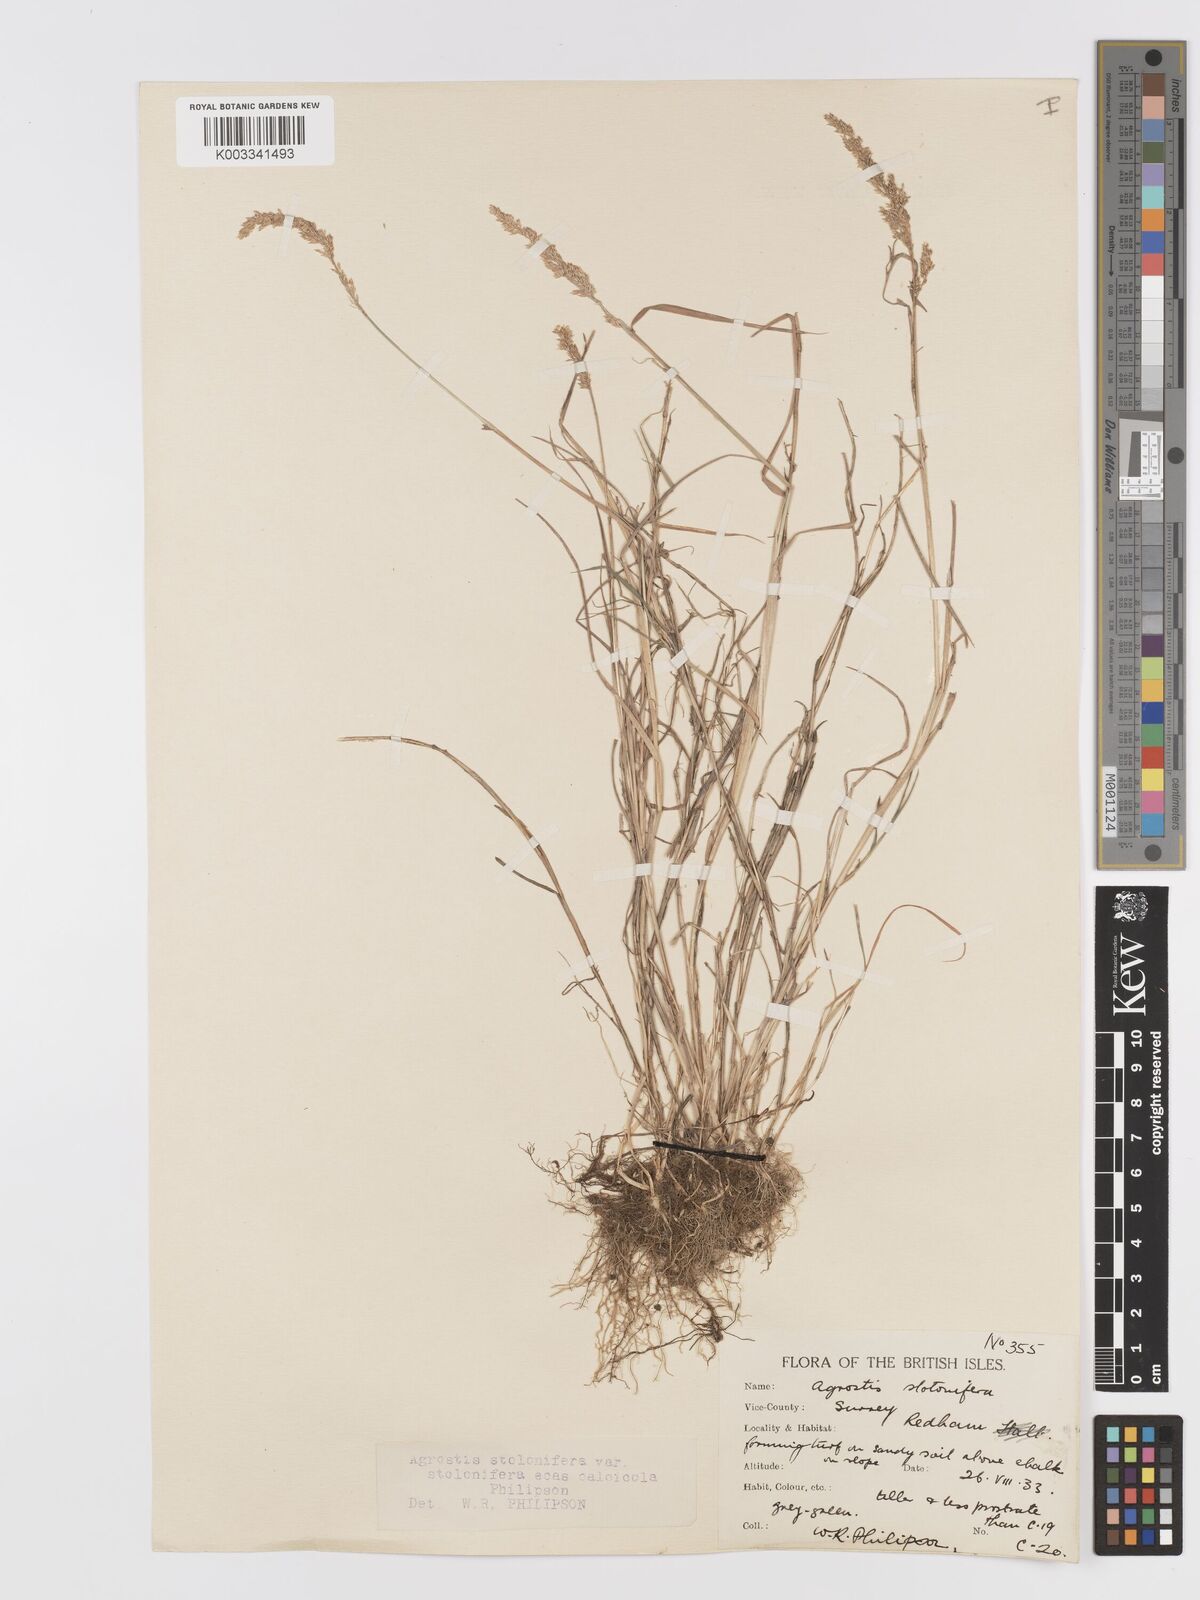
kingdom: Plantae
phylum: Tracheophyta
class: Liliopsida
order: Poales
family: Poaceae
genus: Agrostis
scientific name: Agrostis stolonifera
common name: Creeping bentgrass
